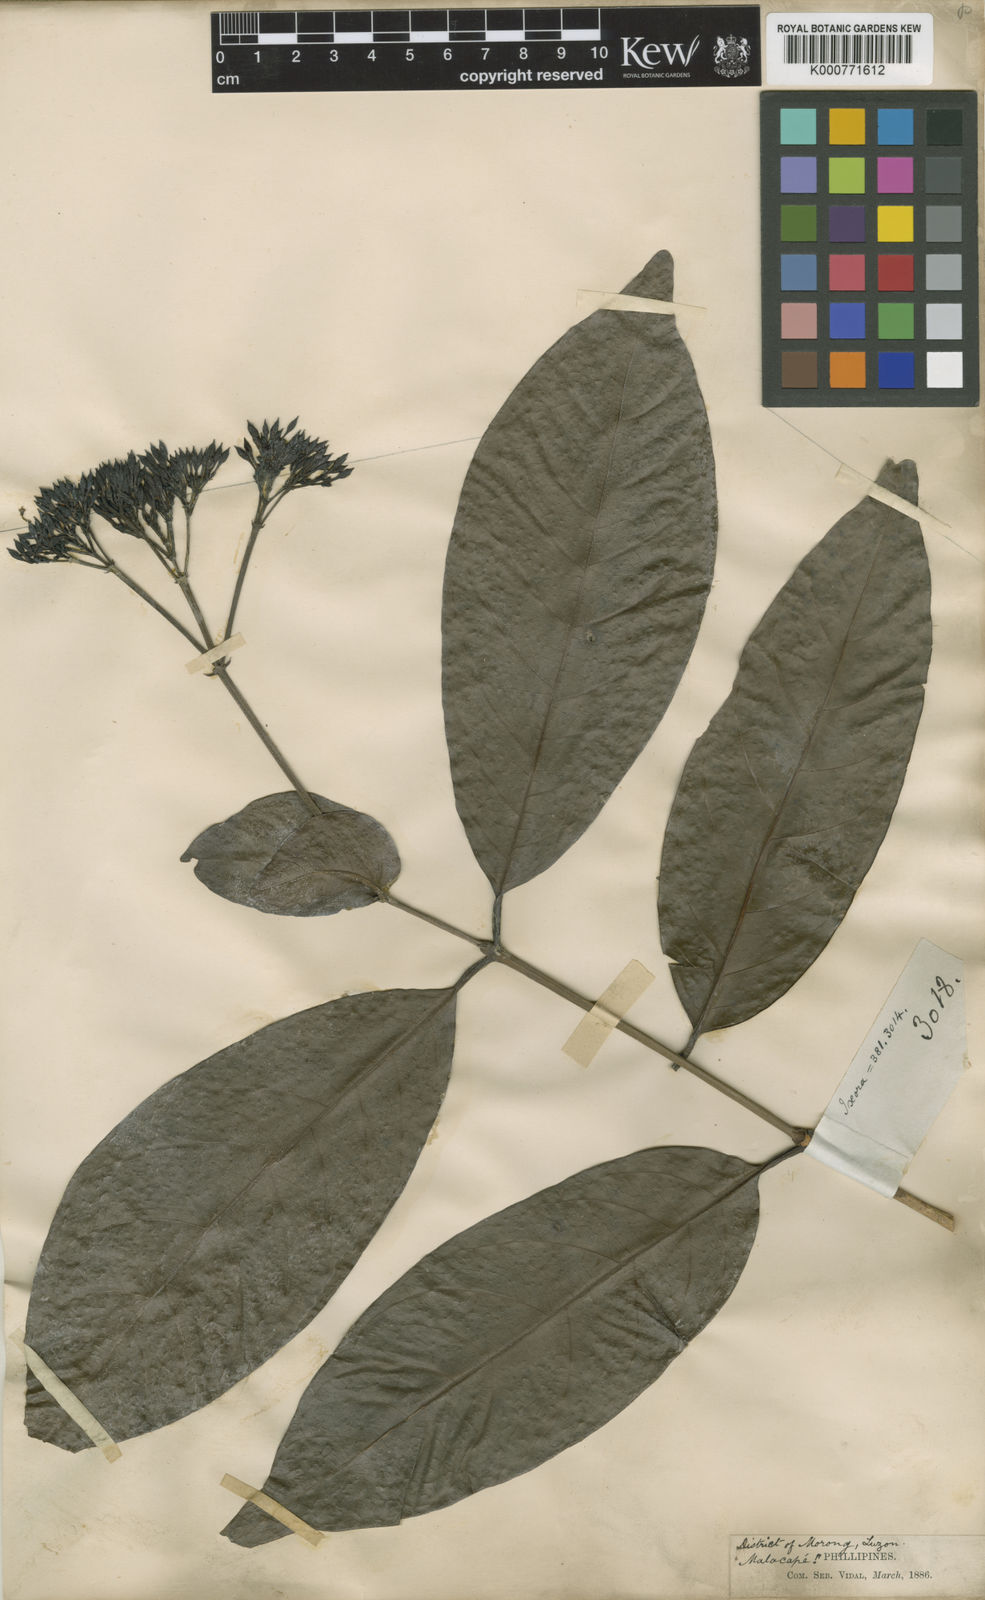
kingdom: Plantae
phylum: Tracheophyta
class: Magnoliopsida
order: Gentianales
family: Rubiaceae
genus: Ixora
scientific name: Ixora cumingiana
